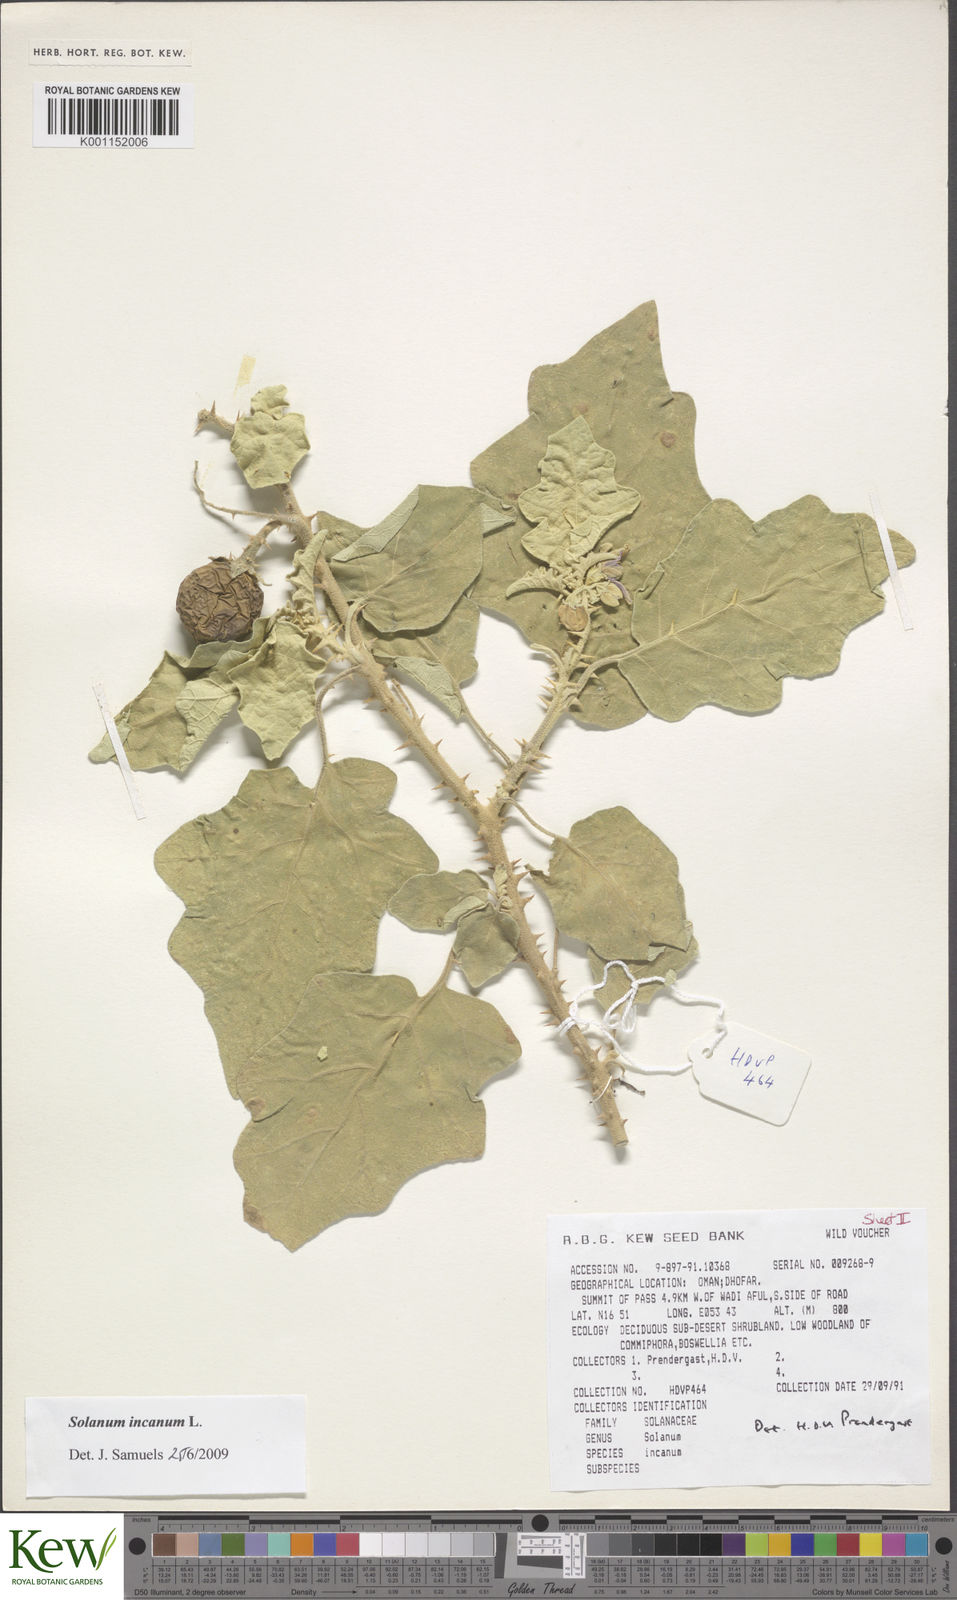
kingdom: Plantae
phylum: Tracheophyta
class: Magnoliopsida
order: Solanales
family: Solanaceae
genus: Solanum
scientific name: Solanum incanum
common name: Bitter apple
